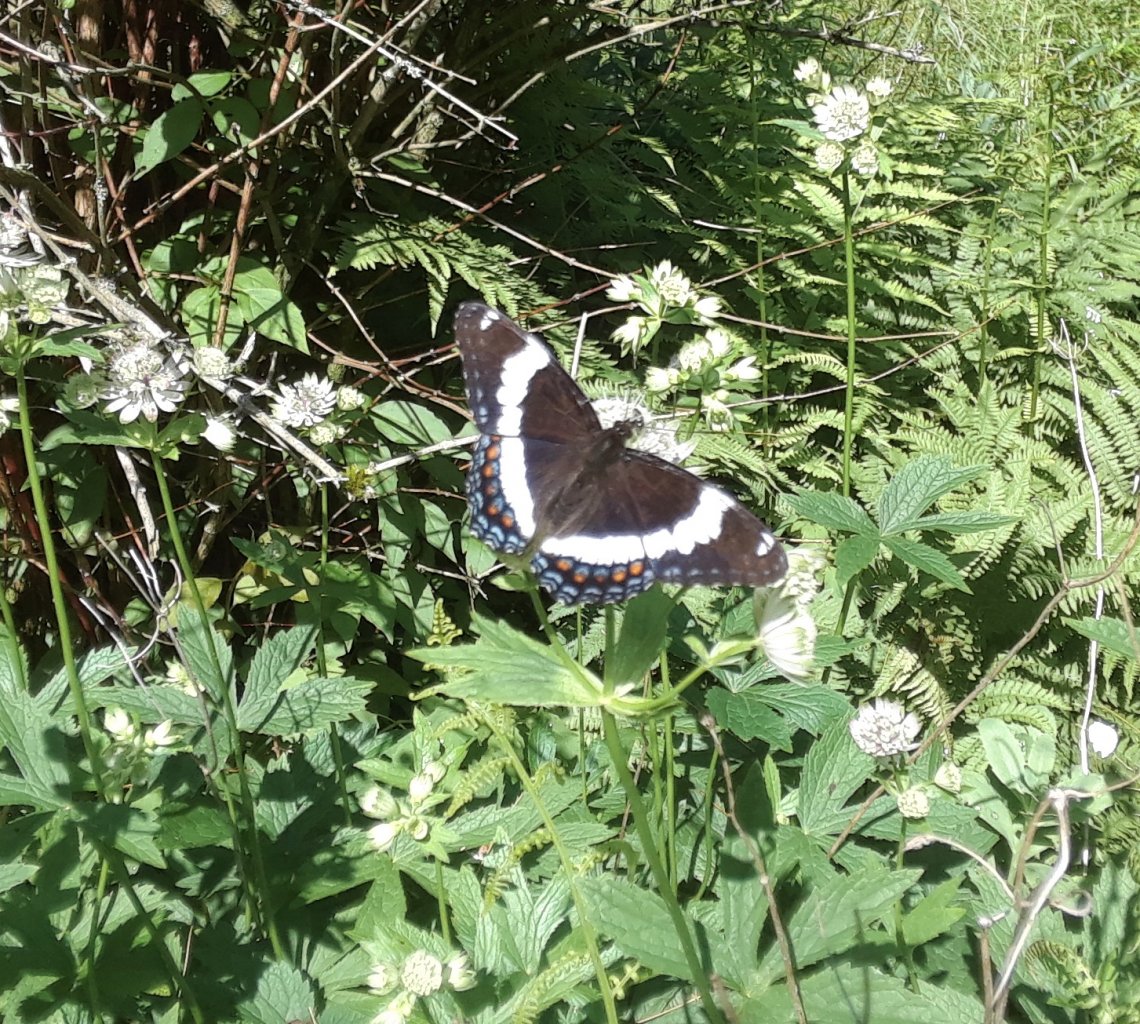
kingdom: Animalia
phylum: Arthropoda
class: Insecta
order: Lepidoptera
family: Nymphalidae
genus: Limenitis
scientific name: Limenitis arthemis
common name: Red-spotted Admiral
